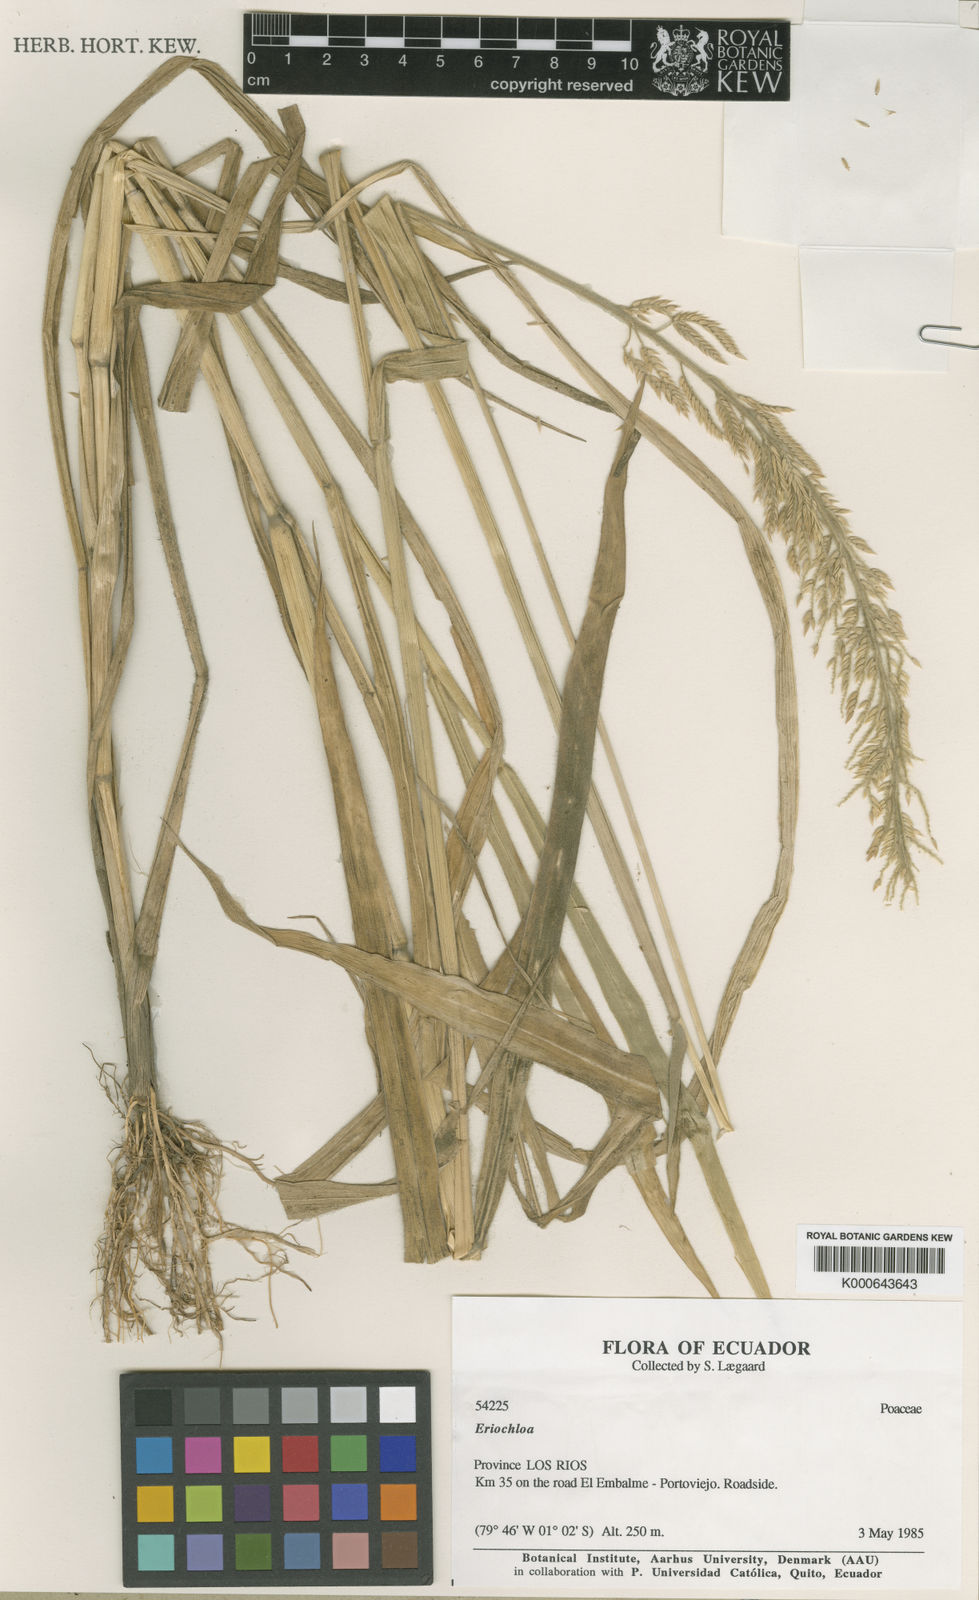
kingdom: Plantae
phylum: Tracheophyta
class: Liliopsida
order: Poales
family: Poaceae
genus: Eriochloa
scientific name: Eriochloa stevensii
